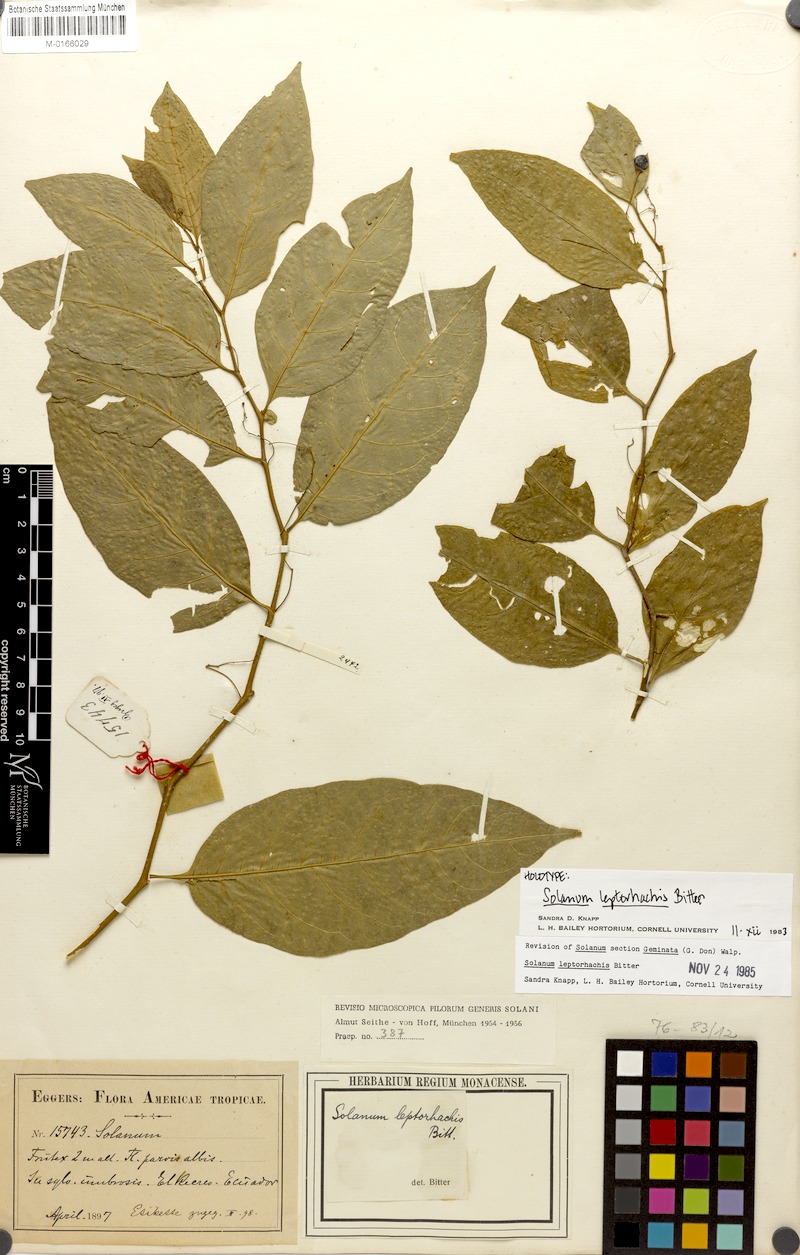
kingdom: Plantae
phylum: Tracheophyta
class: Magnoliopsida
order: Solanales
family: Solanaceae
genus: Solanum
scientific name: Solanum leptorhachis
